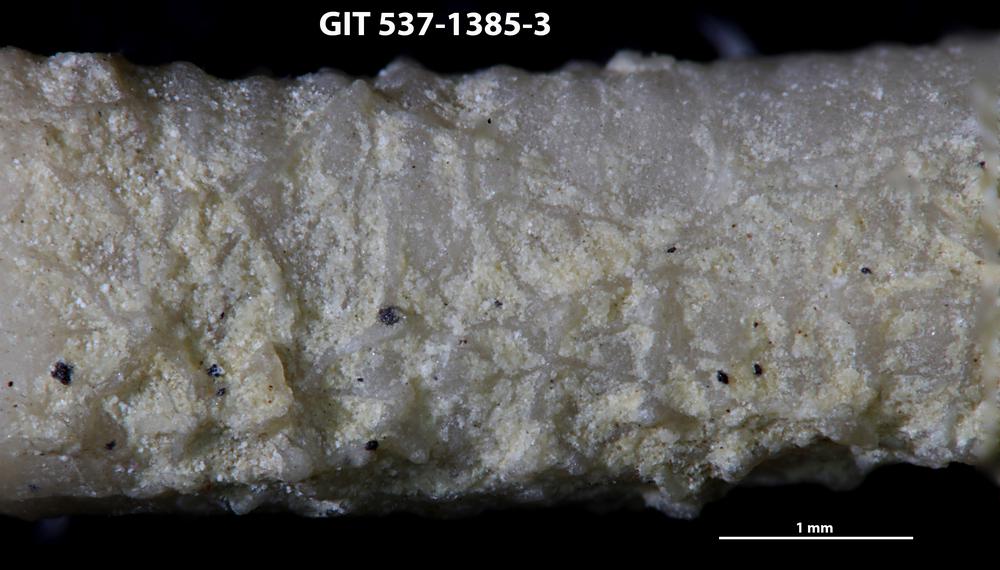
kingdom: Animalia
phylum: Bryozoa
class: Stenolaemata
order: Cyclostomatida
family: Corynotrypidae
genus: Corynotrypa
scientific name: Corynotrypa
